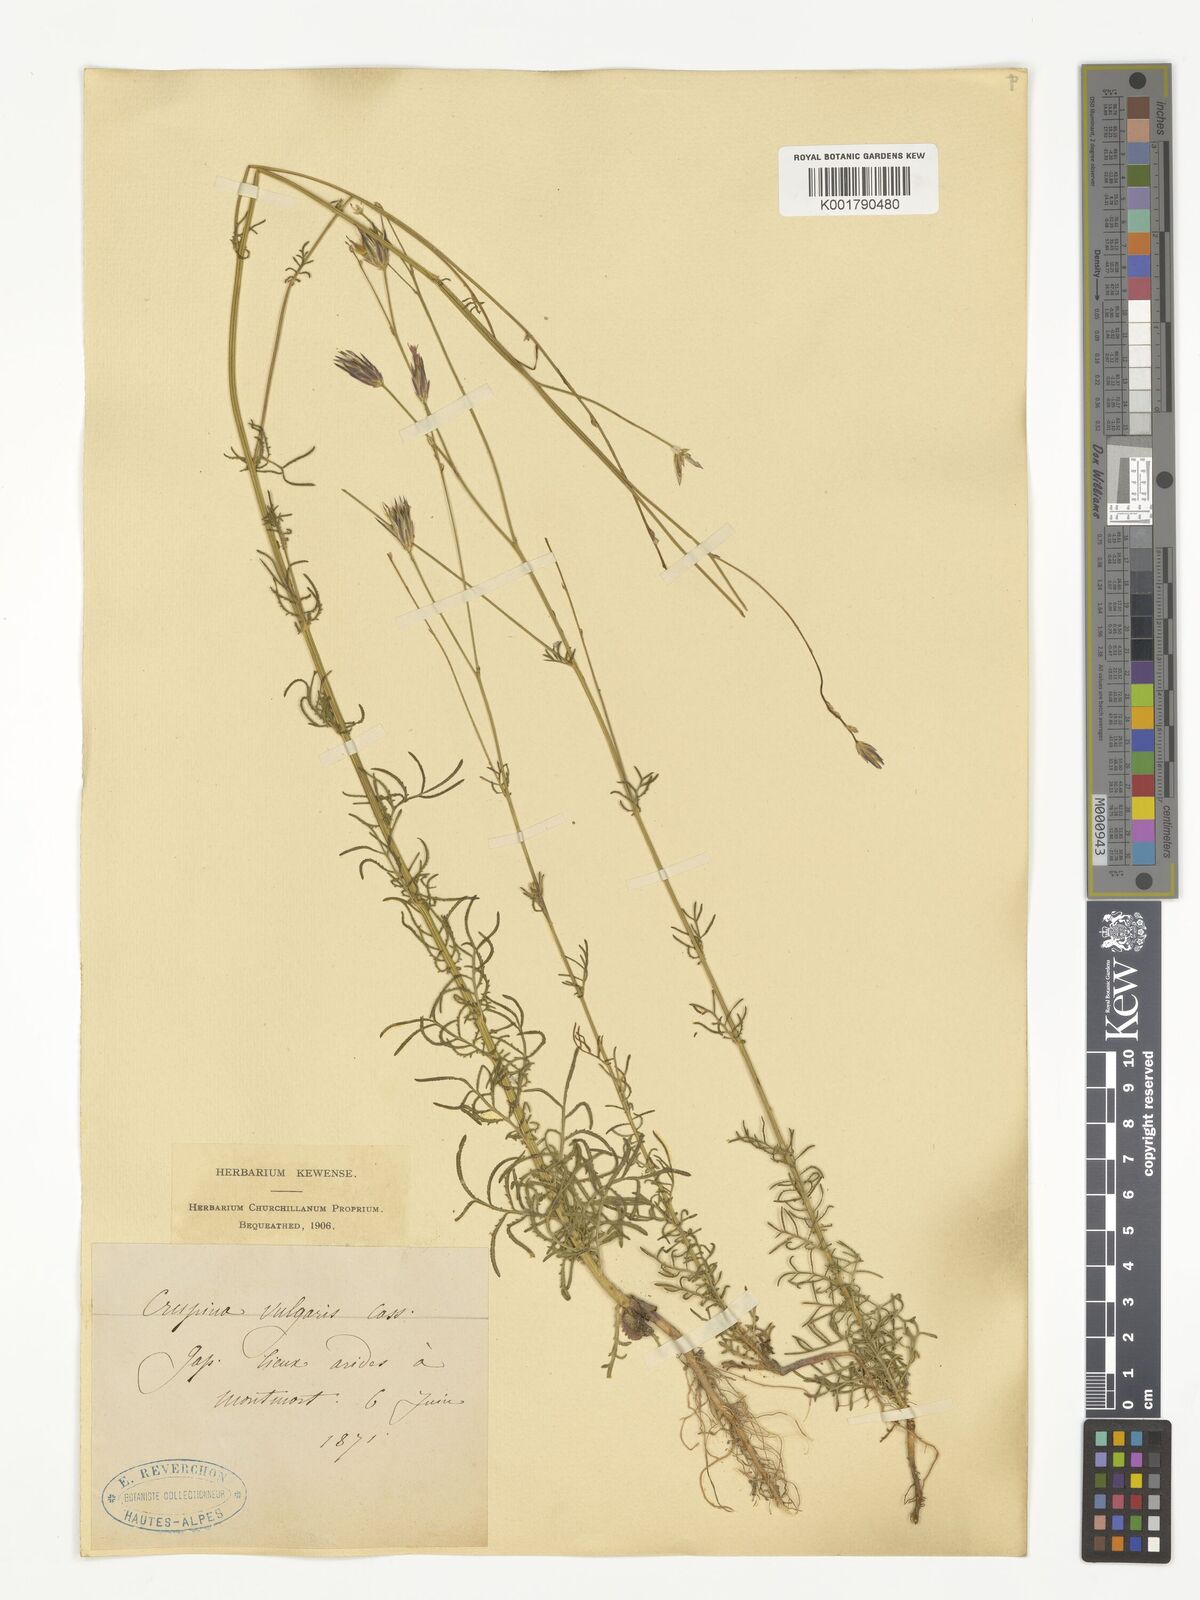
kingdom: Plantae
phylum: Tracheophyta
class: Magnoliopsida
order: Asterales
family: Asteraceae
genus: Crupina
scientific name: Crupina vulgaris
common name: Common crupina
